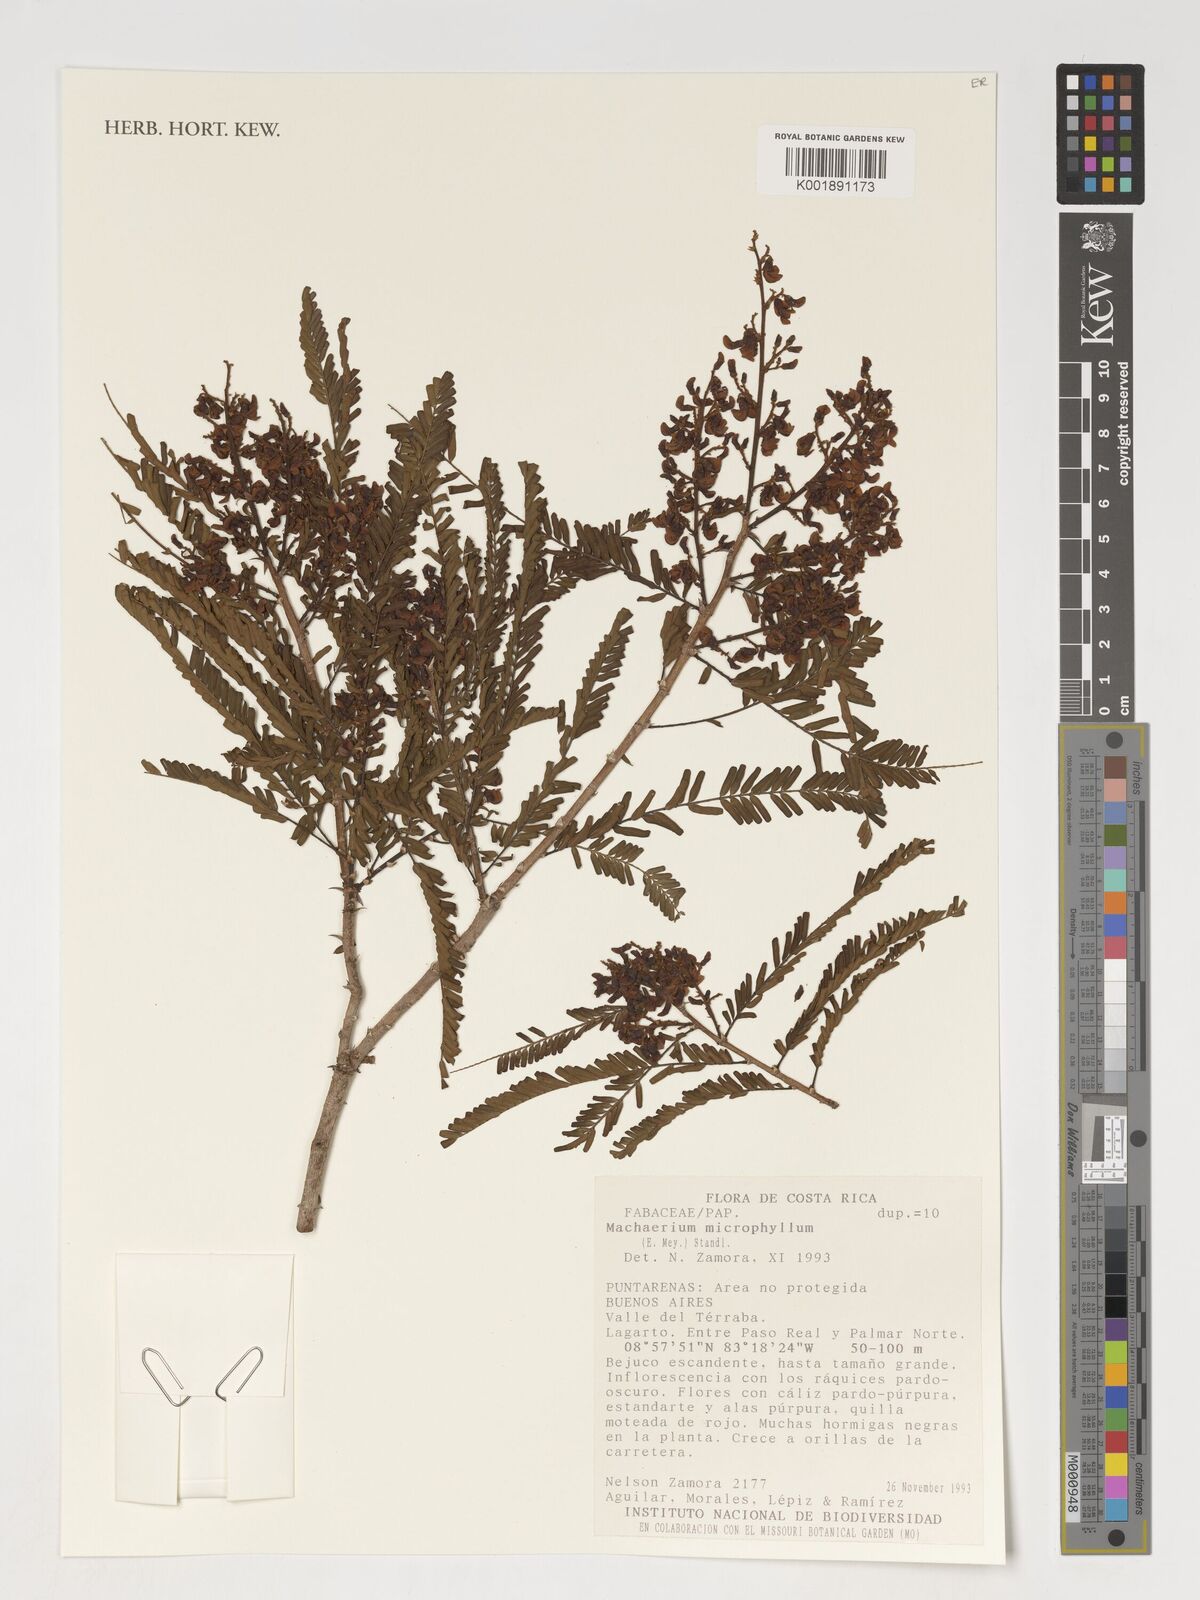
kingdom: Plantae
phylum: Tracheophyta
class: Magnoliopsida
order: Fabales
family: Fabaceae
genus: Machaerium
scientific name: Machaerium isadelphum
